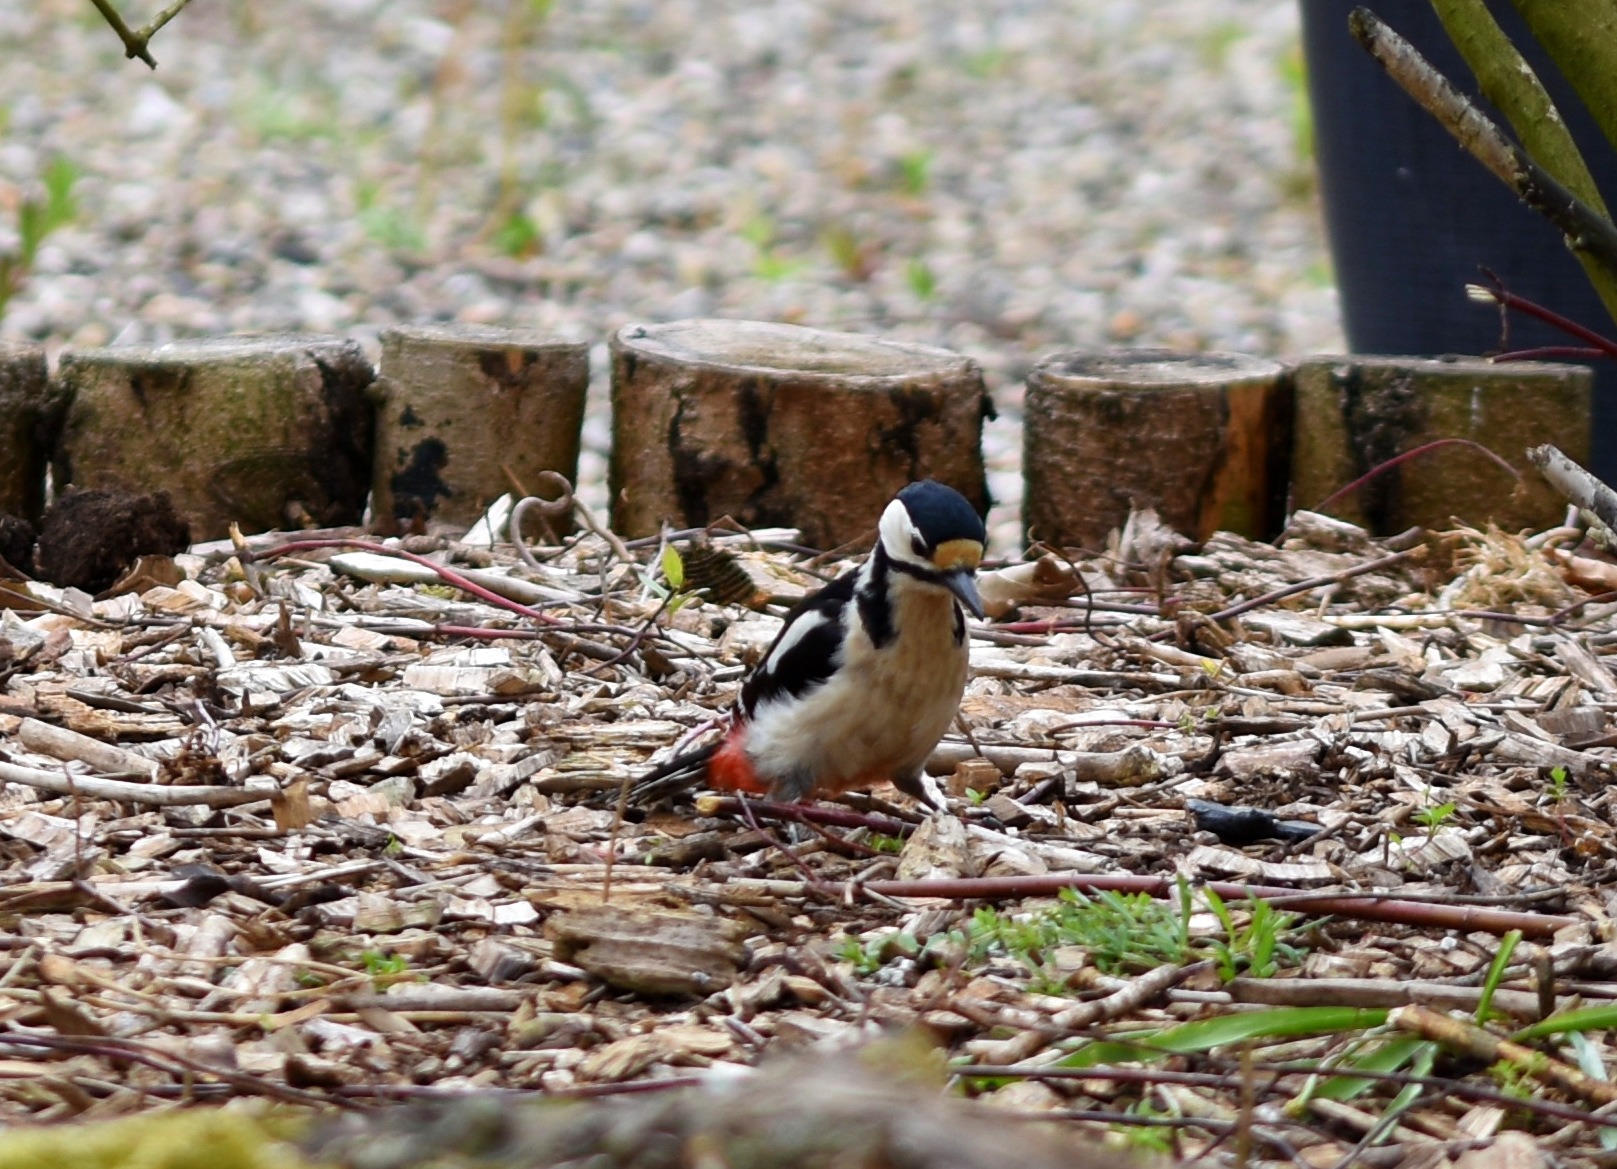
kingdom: Animalia
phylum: Chordata
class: Aves
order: Piciformes
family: Picidae
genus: Dendrocopos
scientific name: Dendrocopos major
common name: Stor flagspætte
